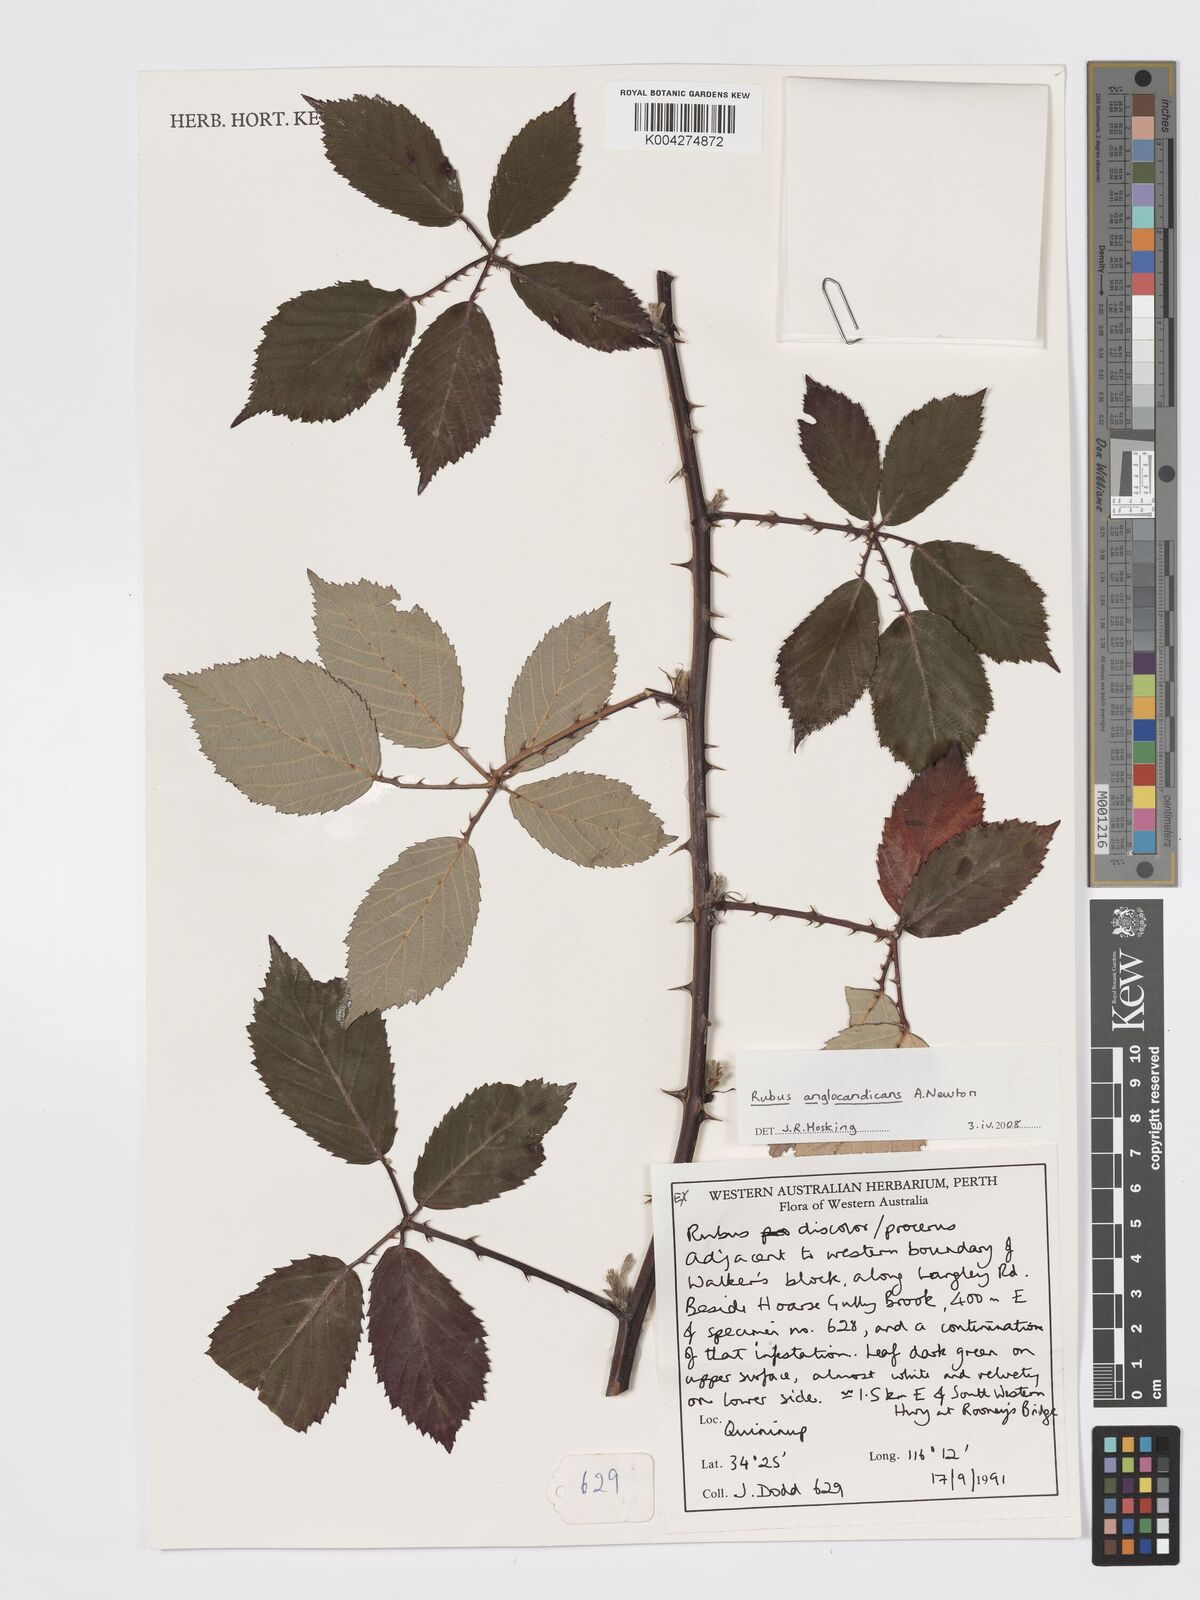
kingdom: Plantae
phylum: Tracheophyta
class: Magnoliopsida
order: Rosales
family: Rosaceae
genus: Rubus
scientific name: Rubus anglocandicans
